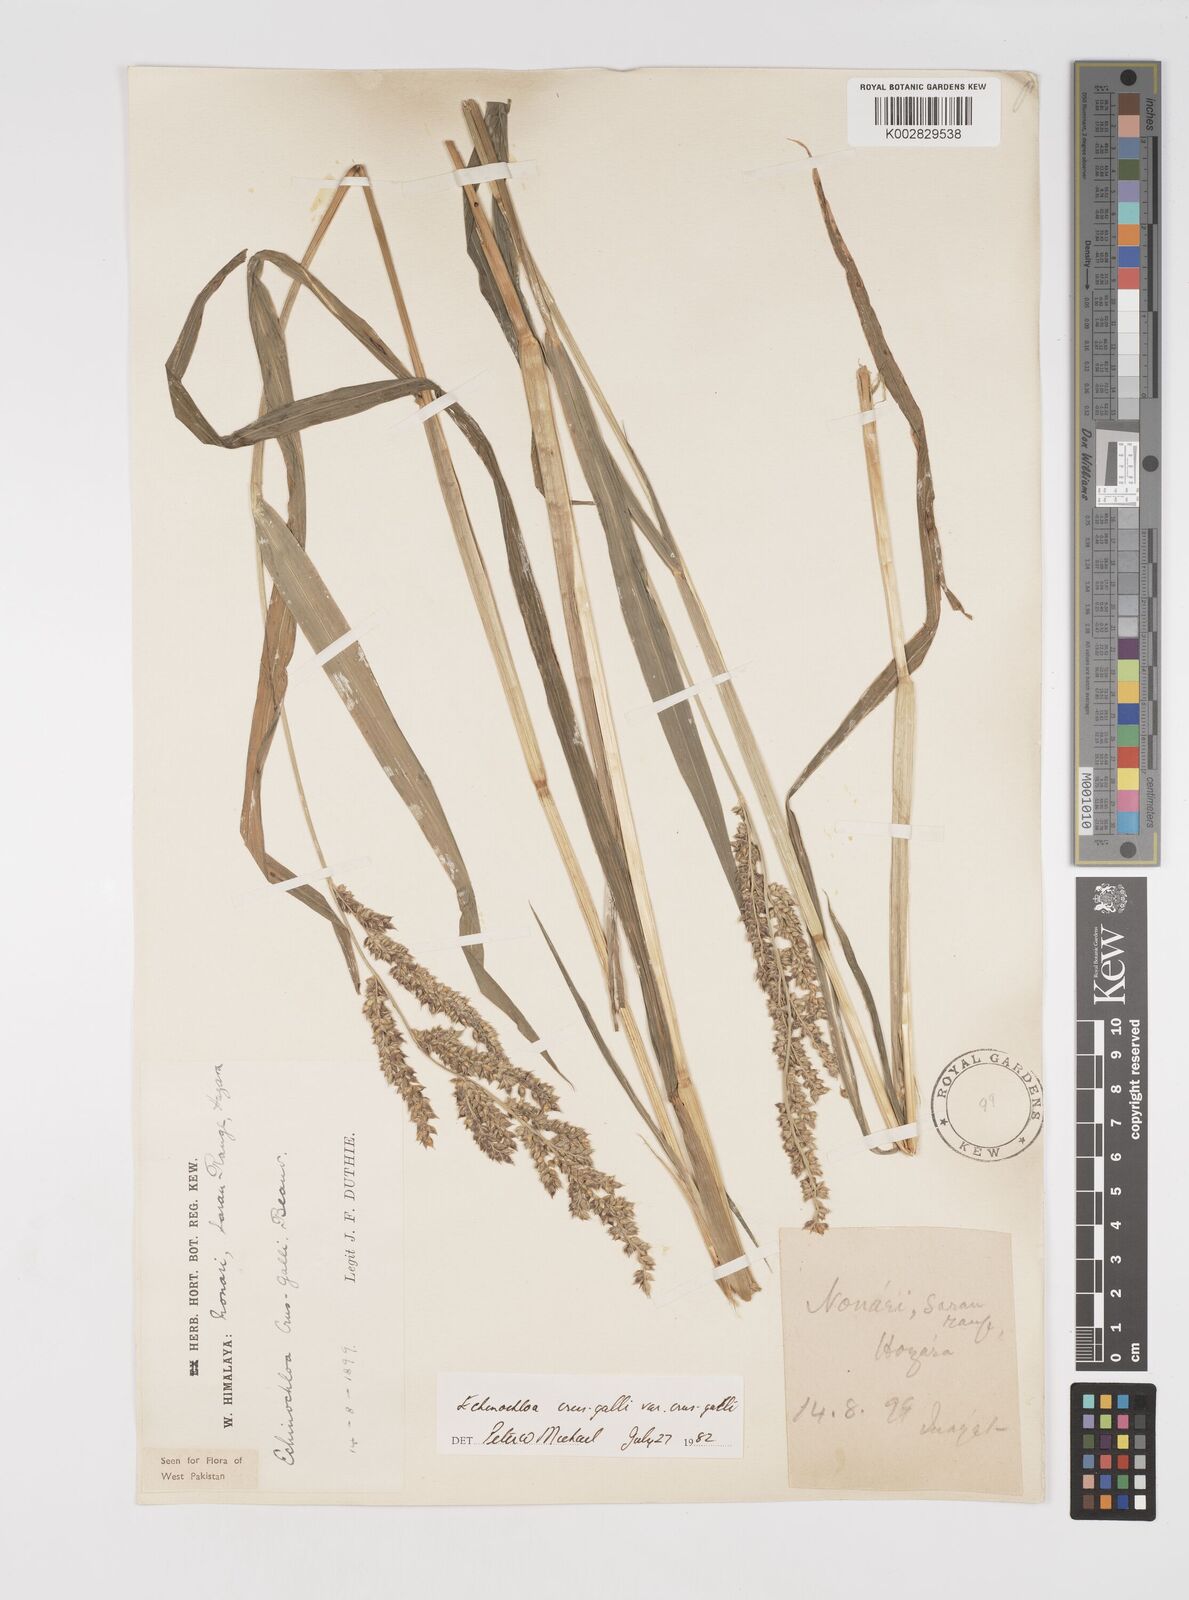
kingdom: Plantae
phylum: Tracheophyta
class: Liliopsida
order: Poales
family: Poaceae
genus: Echinochloa
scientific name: Echinochloa crus-galli
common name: Cockspur
